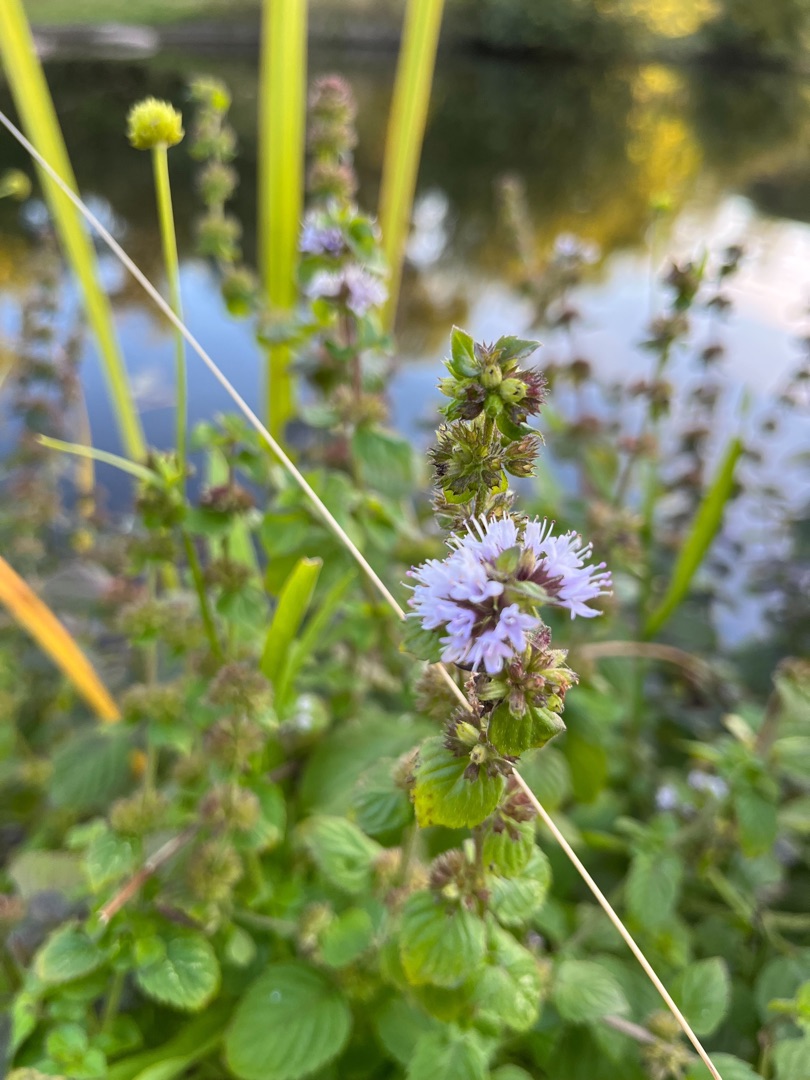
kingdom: Plantae
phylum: Tracheophyta
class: Magnoliopsida
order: Lamiales
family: Lamiaceae
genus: Mentha
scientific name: Mentha verticillata
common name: Krans-mynte
